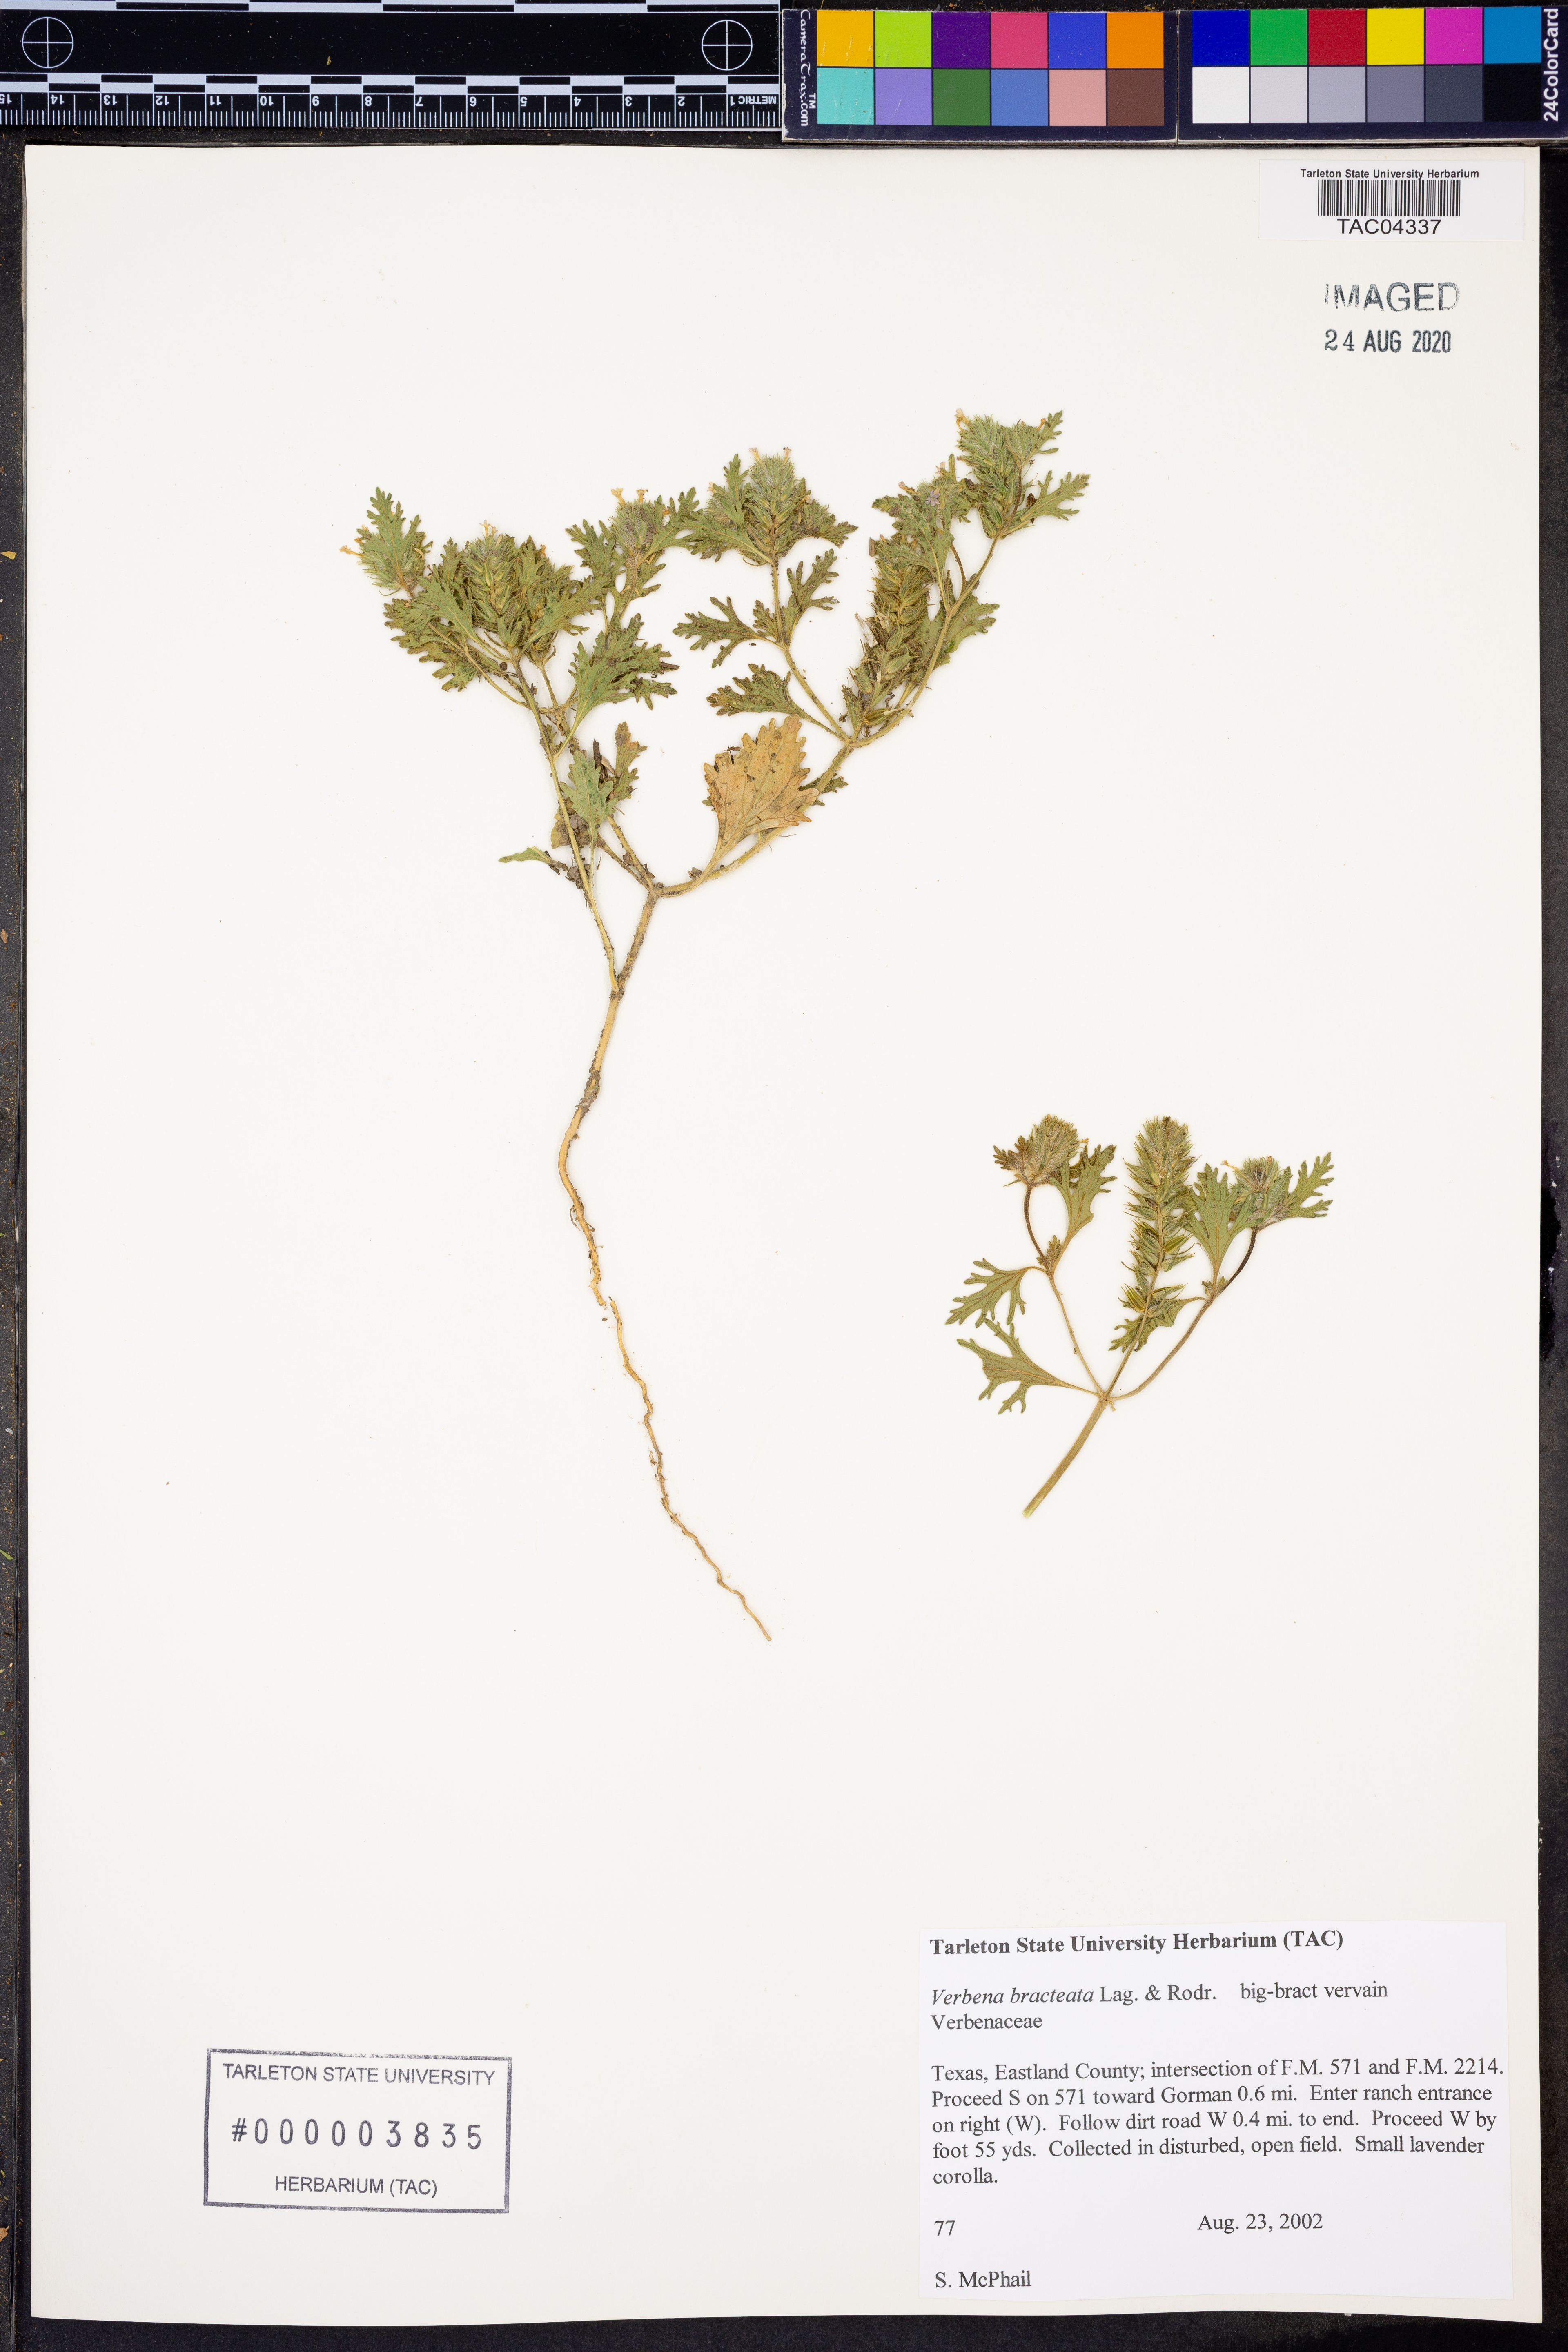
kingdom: Plantae
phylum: Tracheophyta
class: Magnoliopsida
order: Lamiales
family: Verbenaceae
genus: Verbena
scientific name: Verbena bracteata
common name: Bracted vervain
